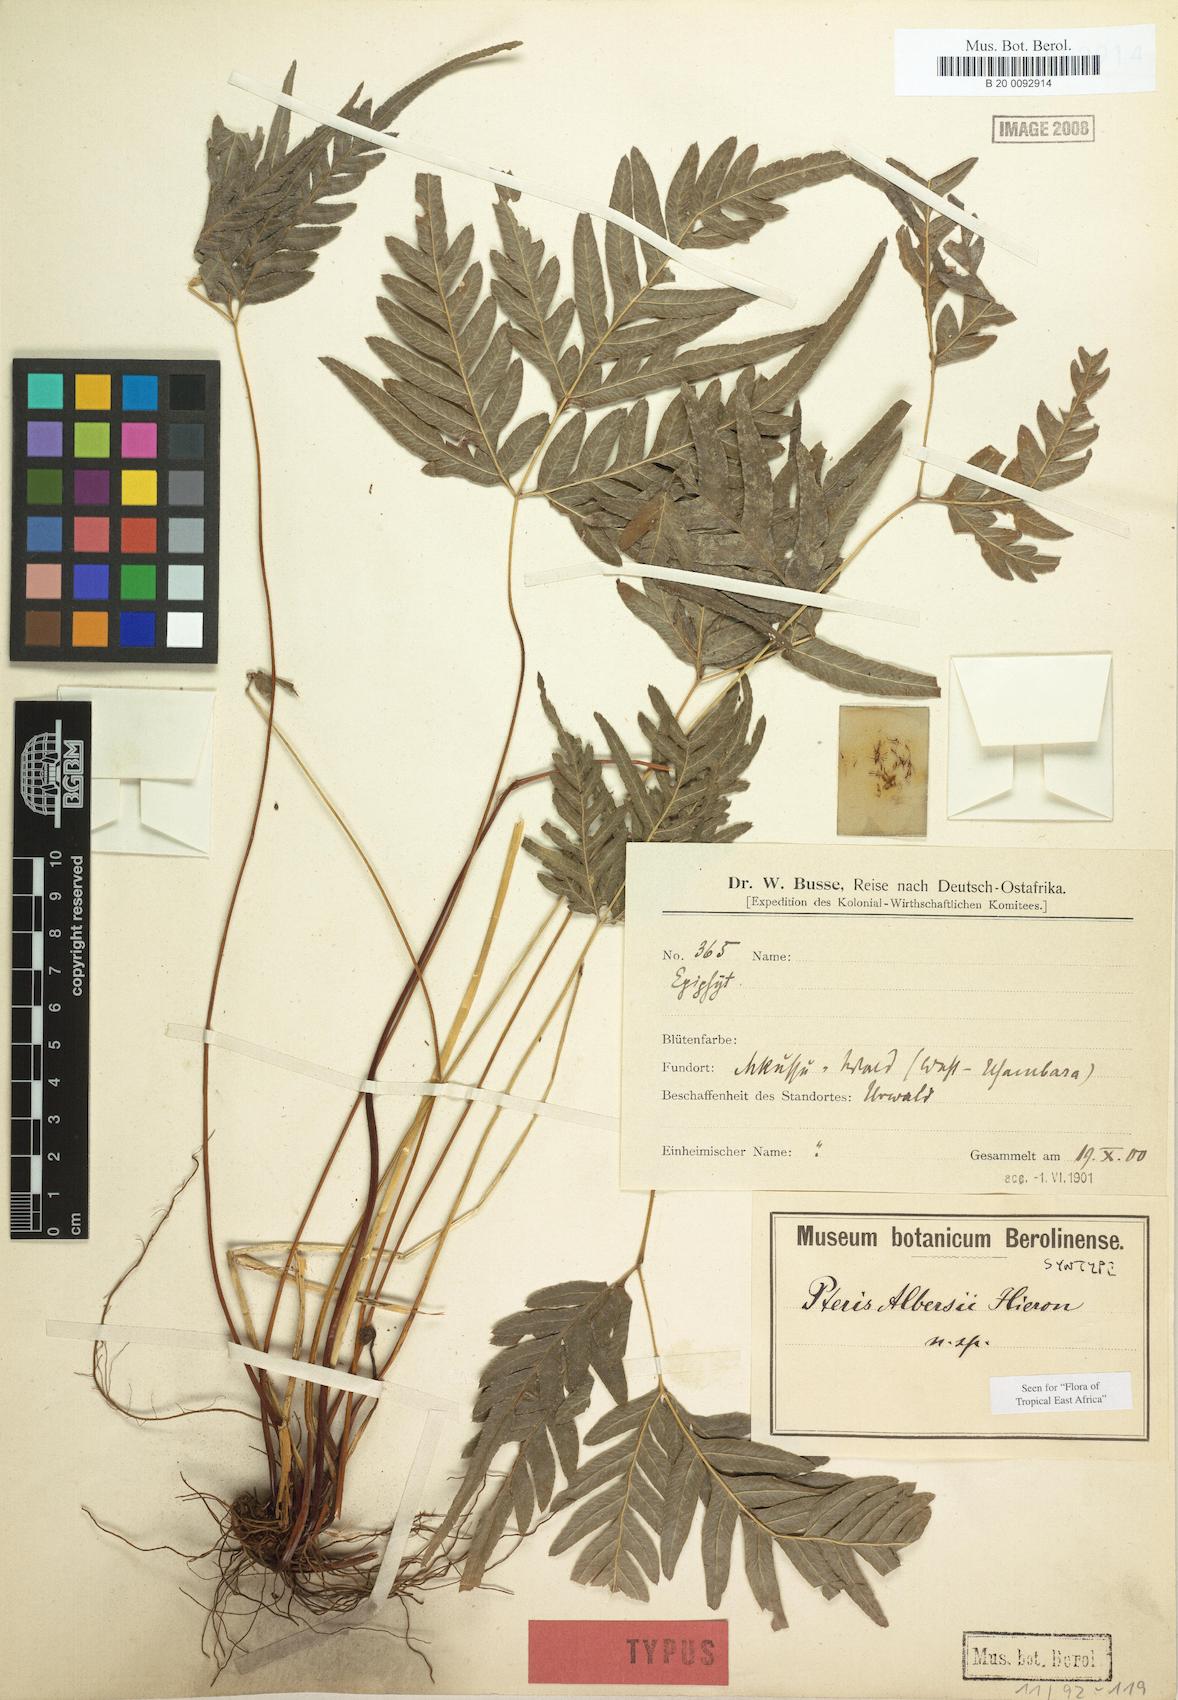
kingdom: Plantae
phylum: Tracheophyta
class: Polypodiopsida
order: Polypodiales
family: Pteridaceae
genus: Pteris
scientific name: Pteris albersii
